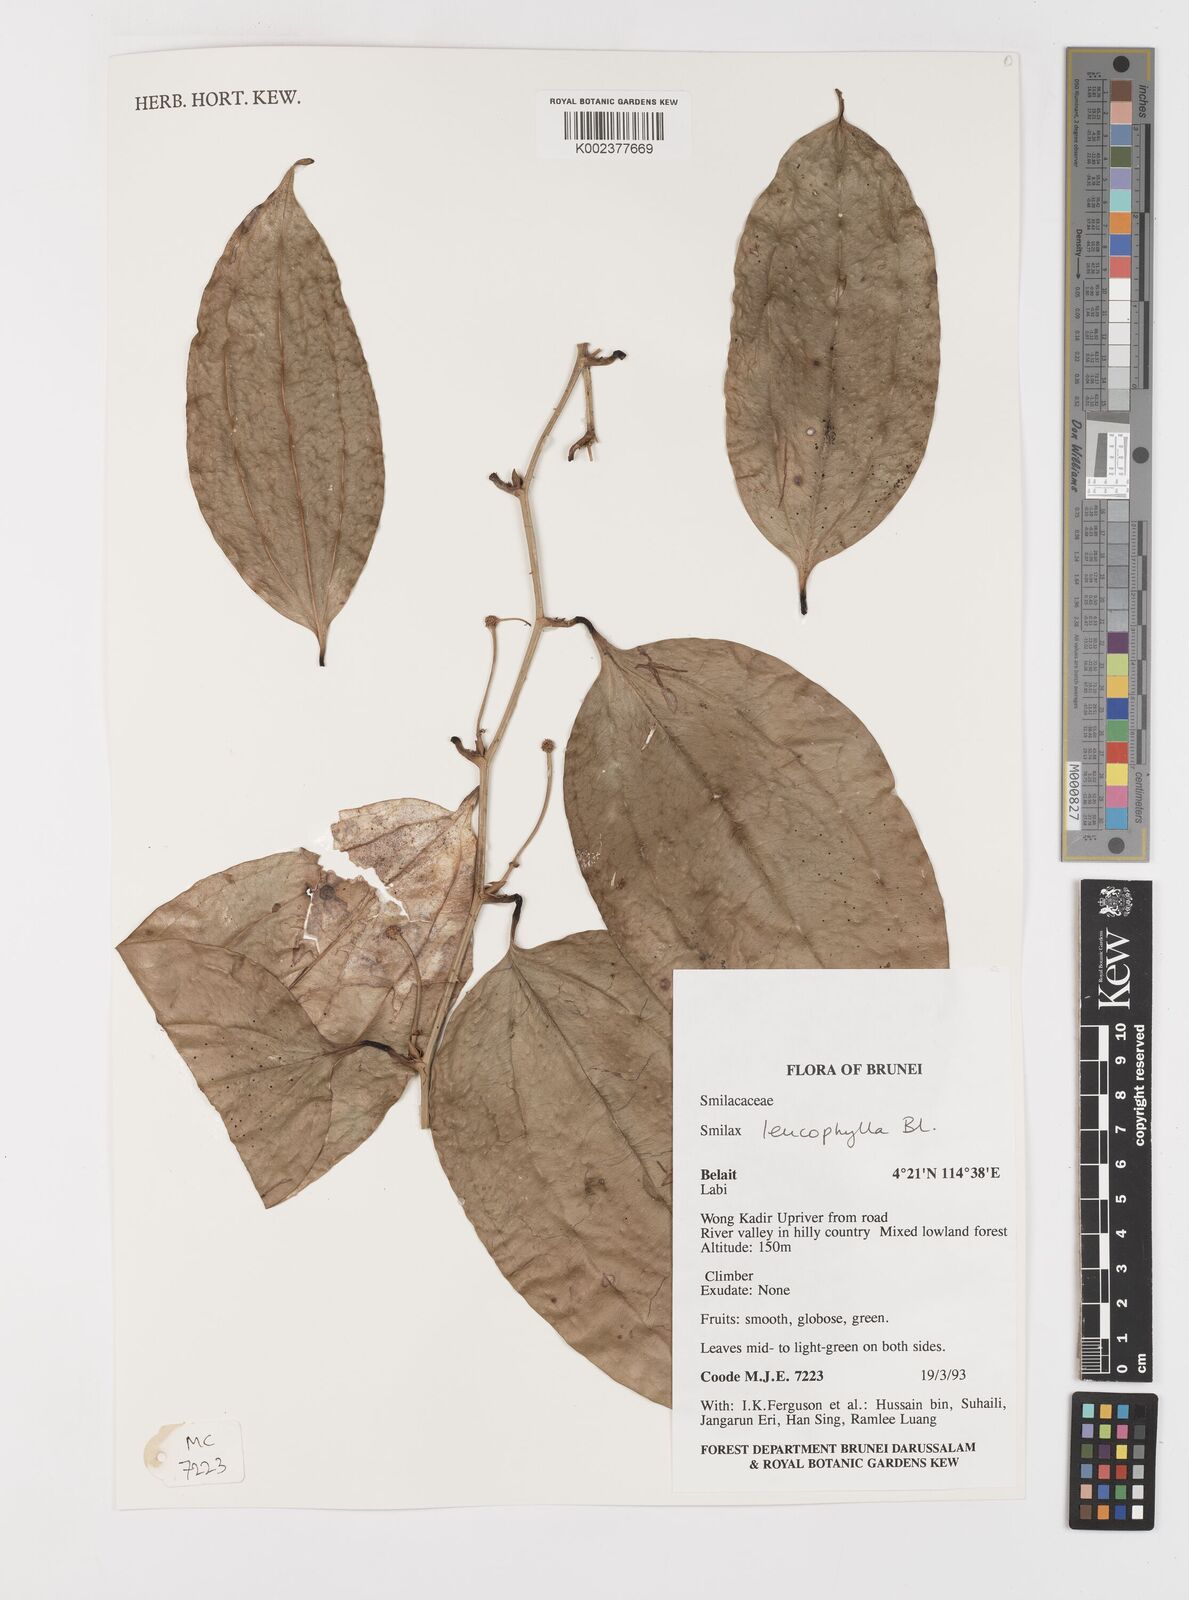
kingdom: Plantae
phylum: Tracheophyta
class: Liliopsida
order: Liliales
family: Smilacaceae
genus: Smilax
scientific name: Smilax leucophylla
